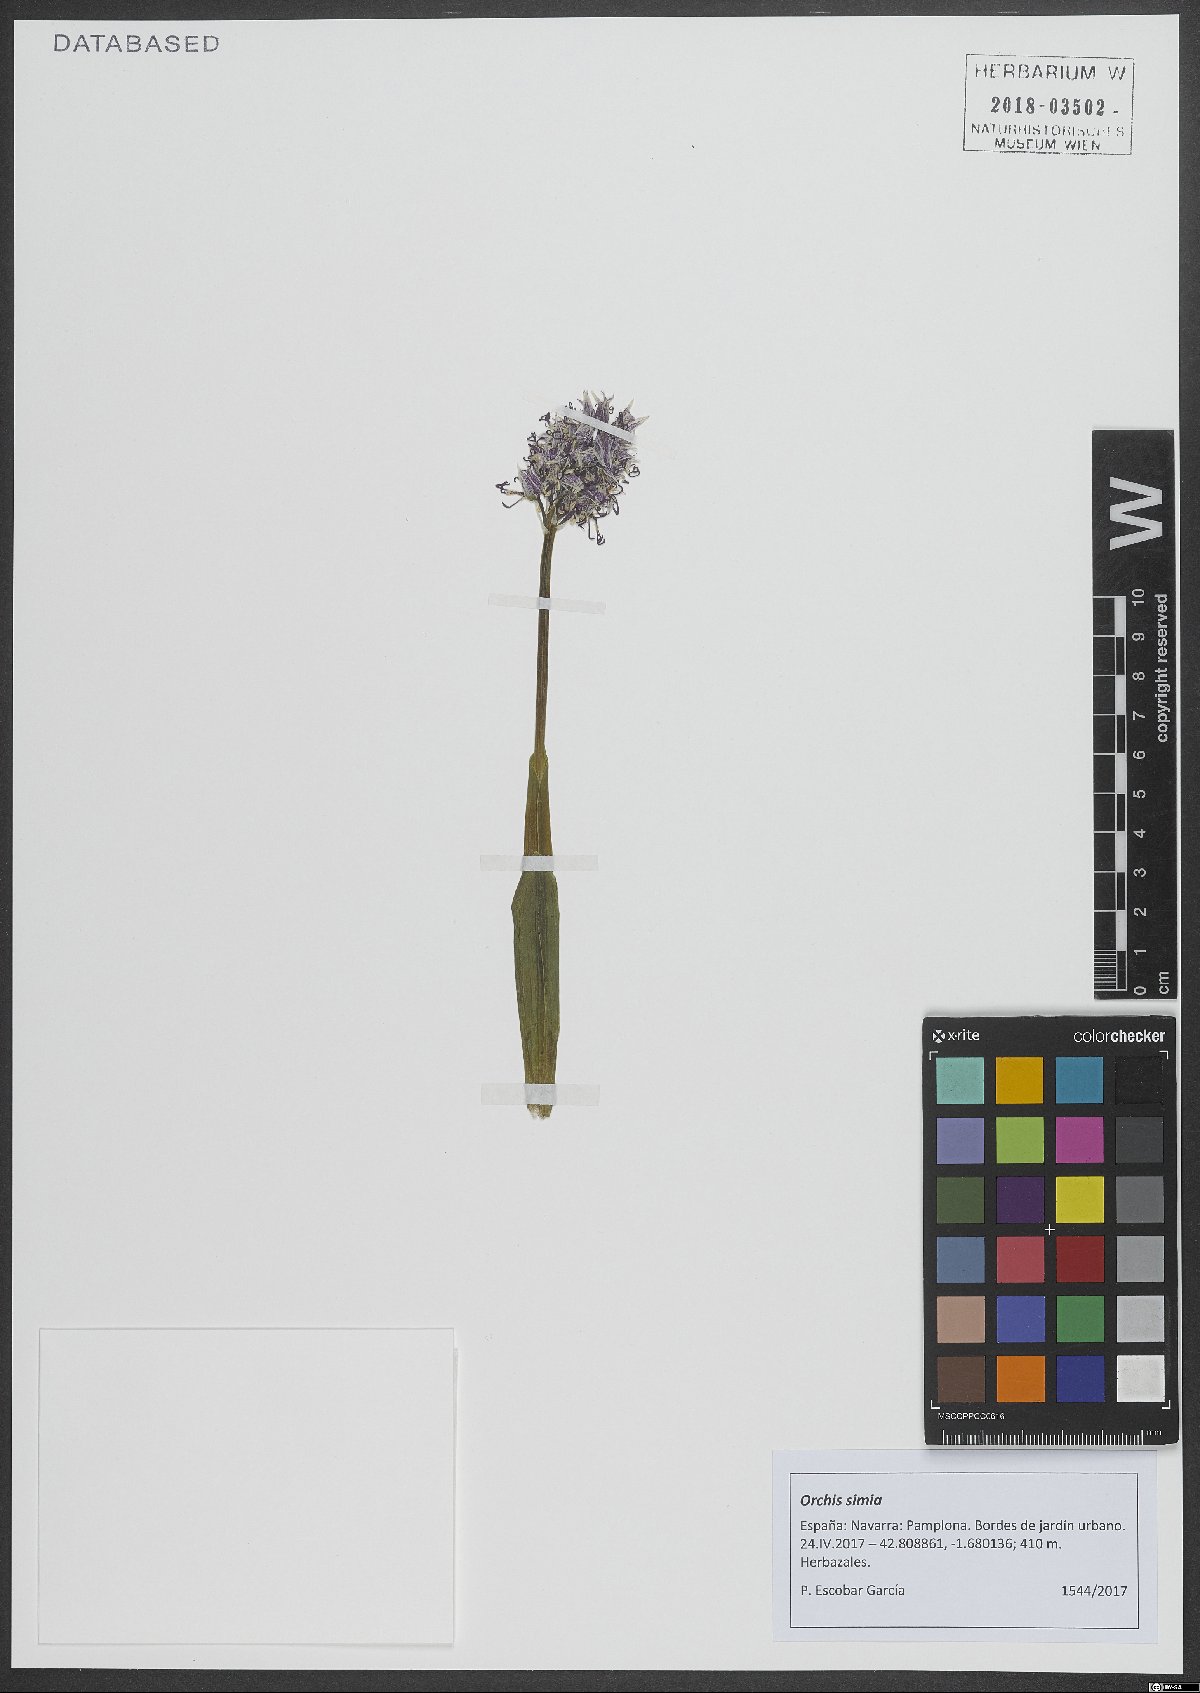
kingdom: Plantae
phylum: Tracheophyta
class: Liliopsida
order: Asparagales
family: Orchidaceae
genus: Orchis
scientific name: Orchis simia
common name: Monkey orchid
